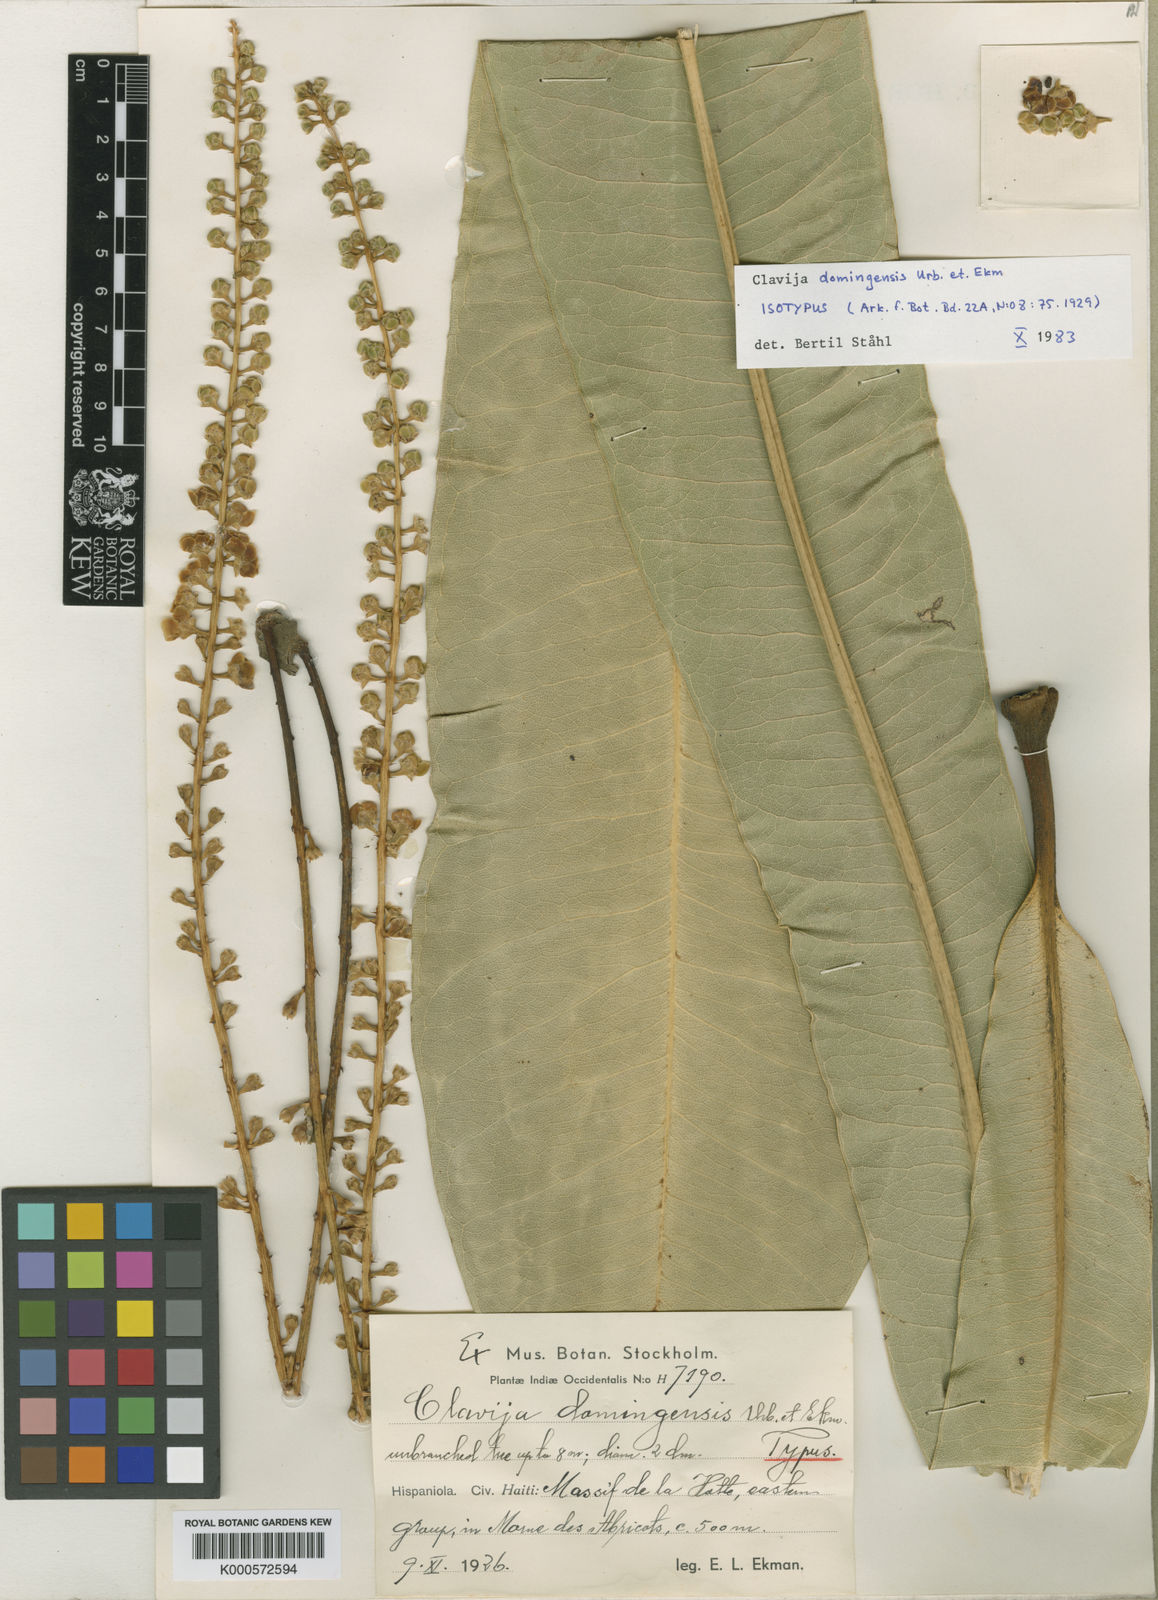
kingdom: Plantae
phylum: Tracheophyta
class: Magnoliopsida
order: Ericales
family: Primulaceae
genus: Clavija
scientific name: Clavija domingensis
